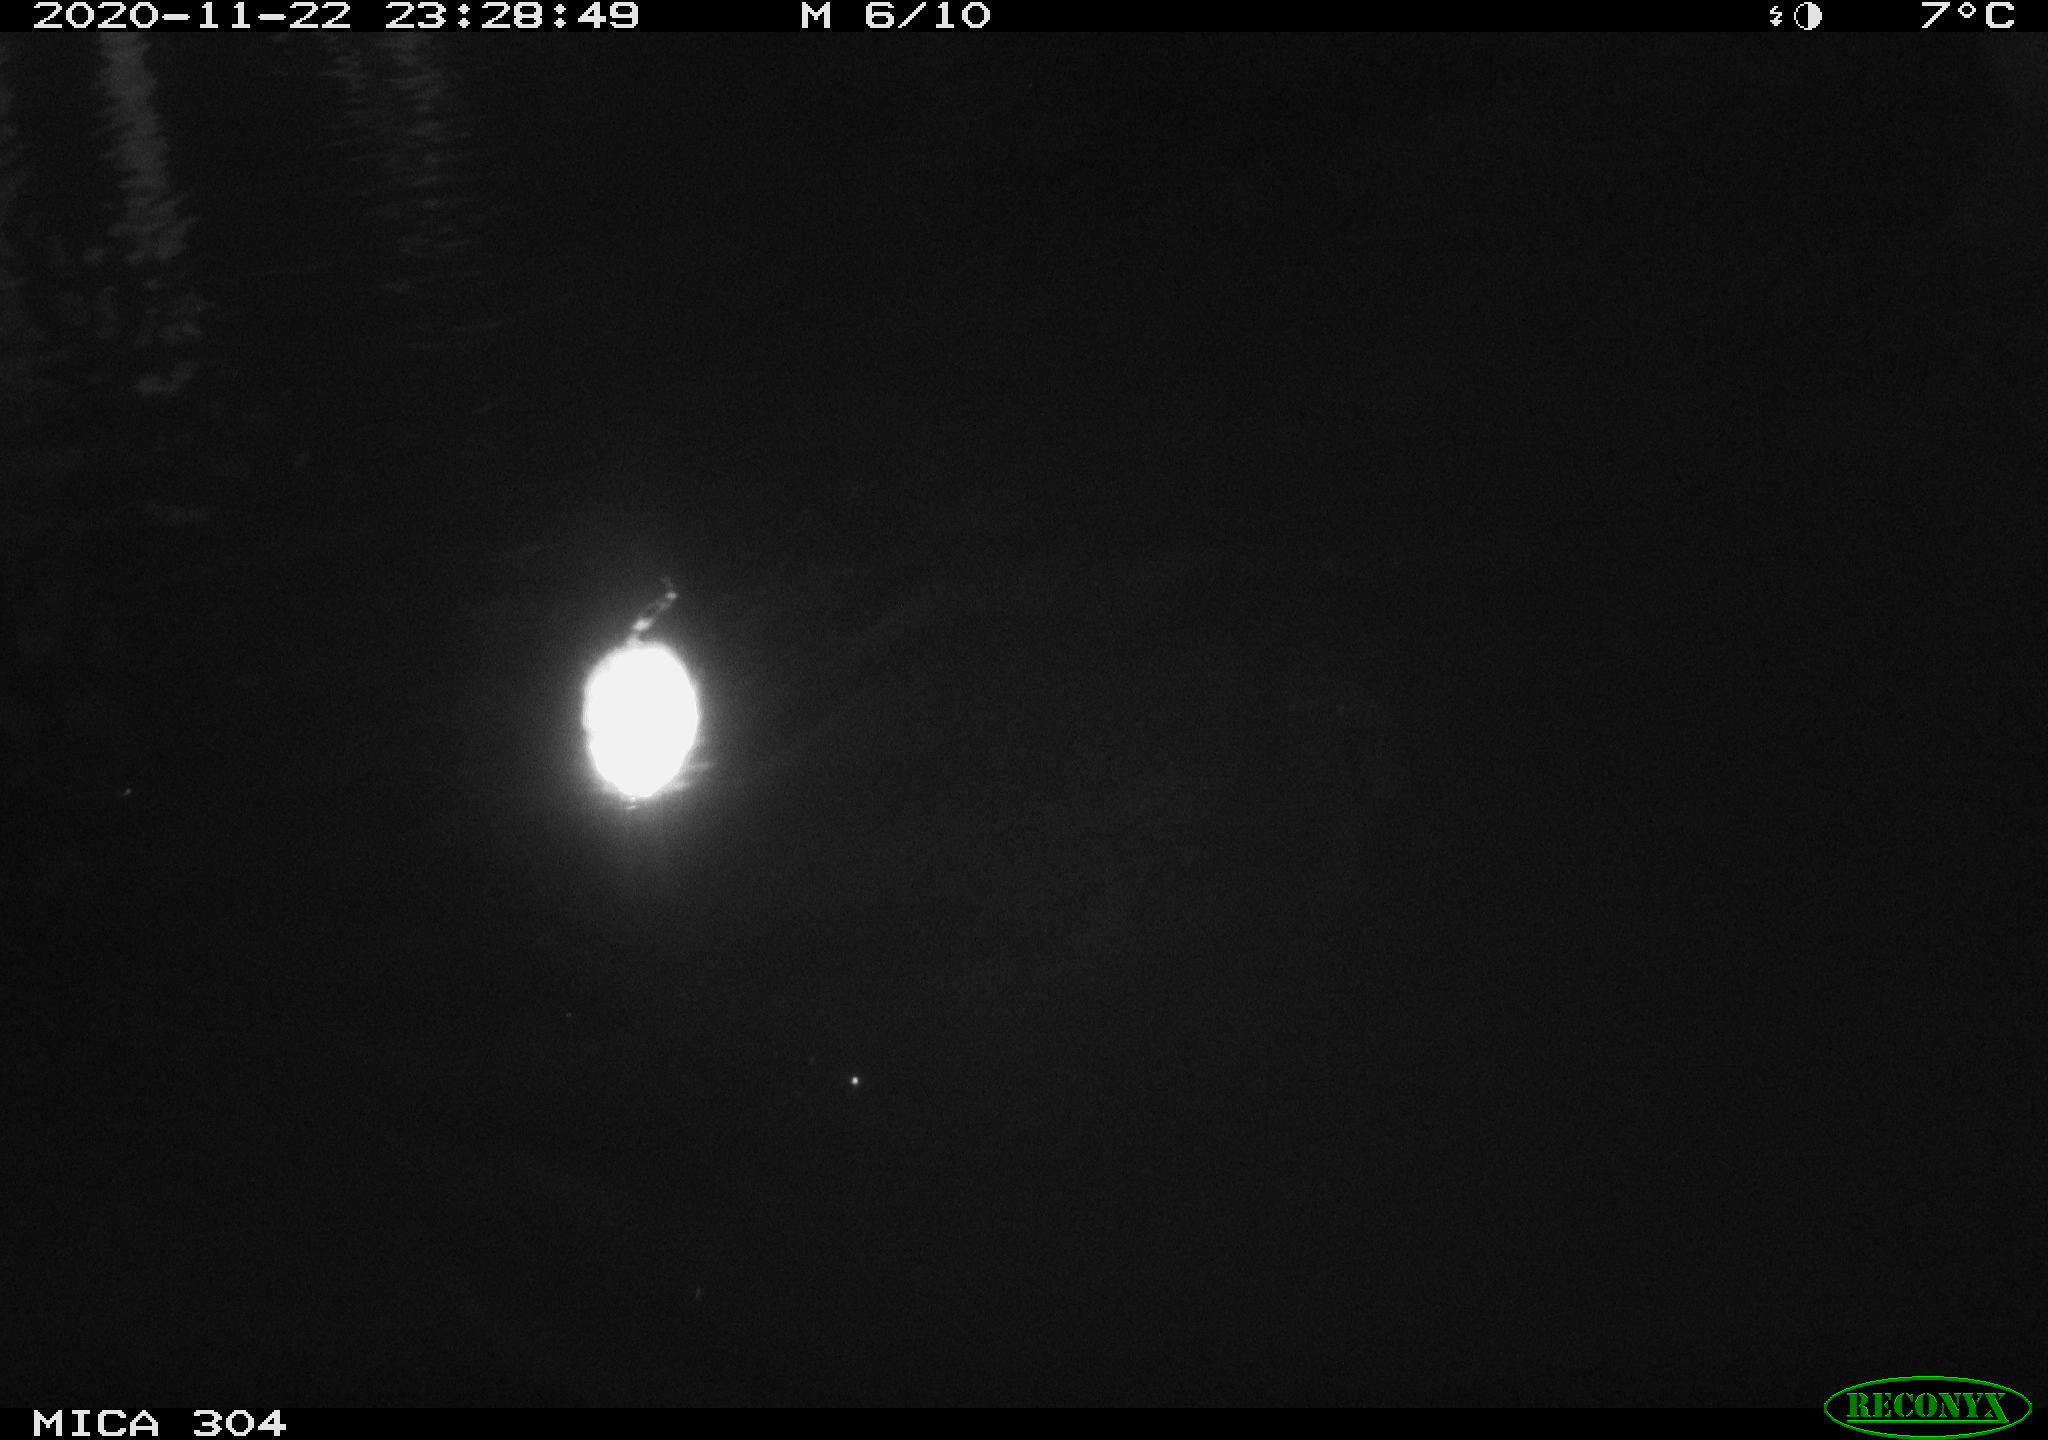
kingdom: Animalia
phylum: Chordata
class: Mammalia
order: Rodentia
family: Muridae
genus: Rattus
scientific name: Rattus norvegicus
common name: Brown rat
